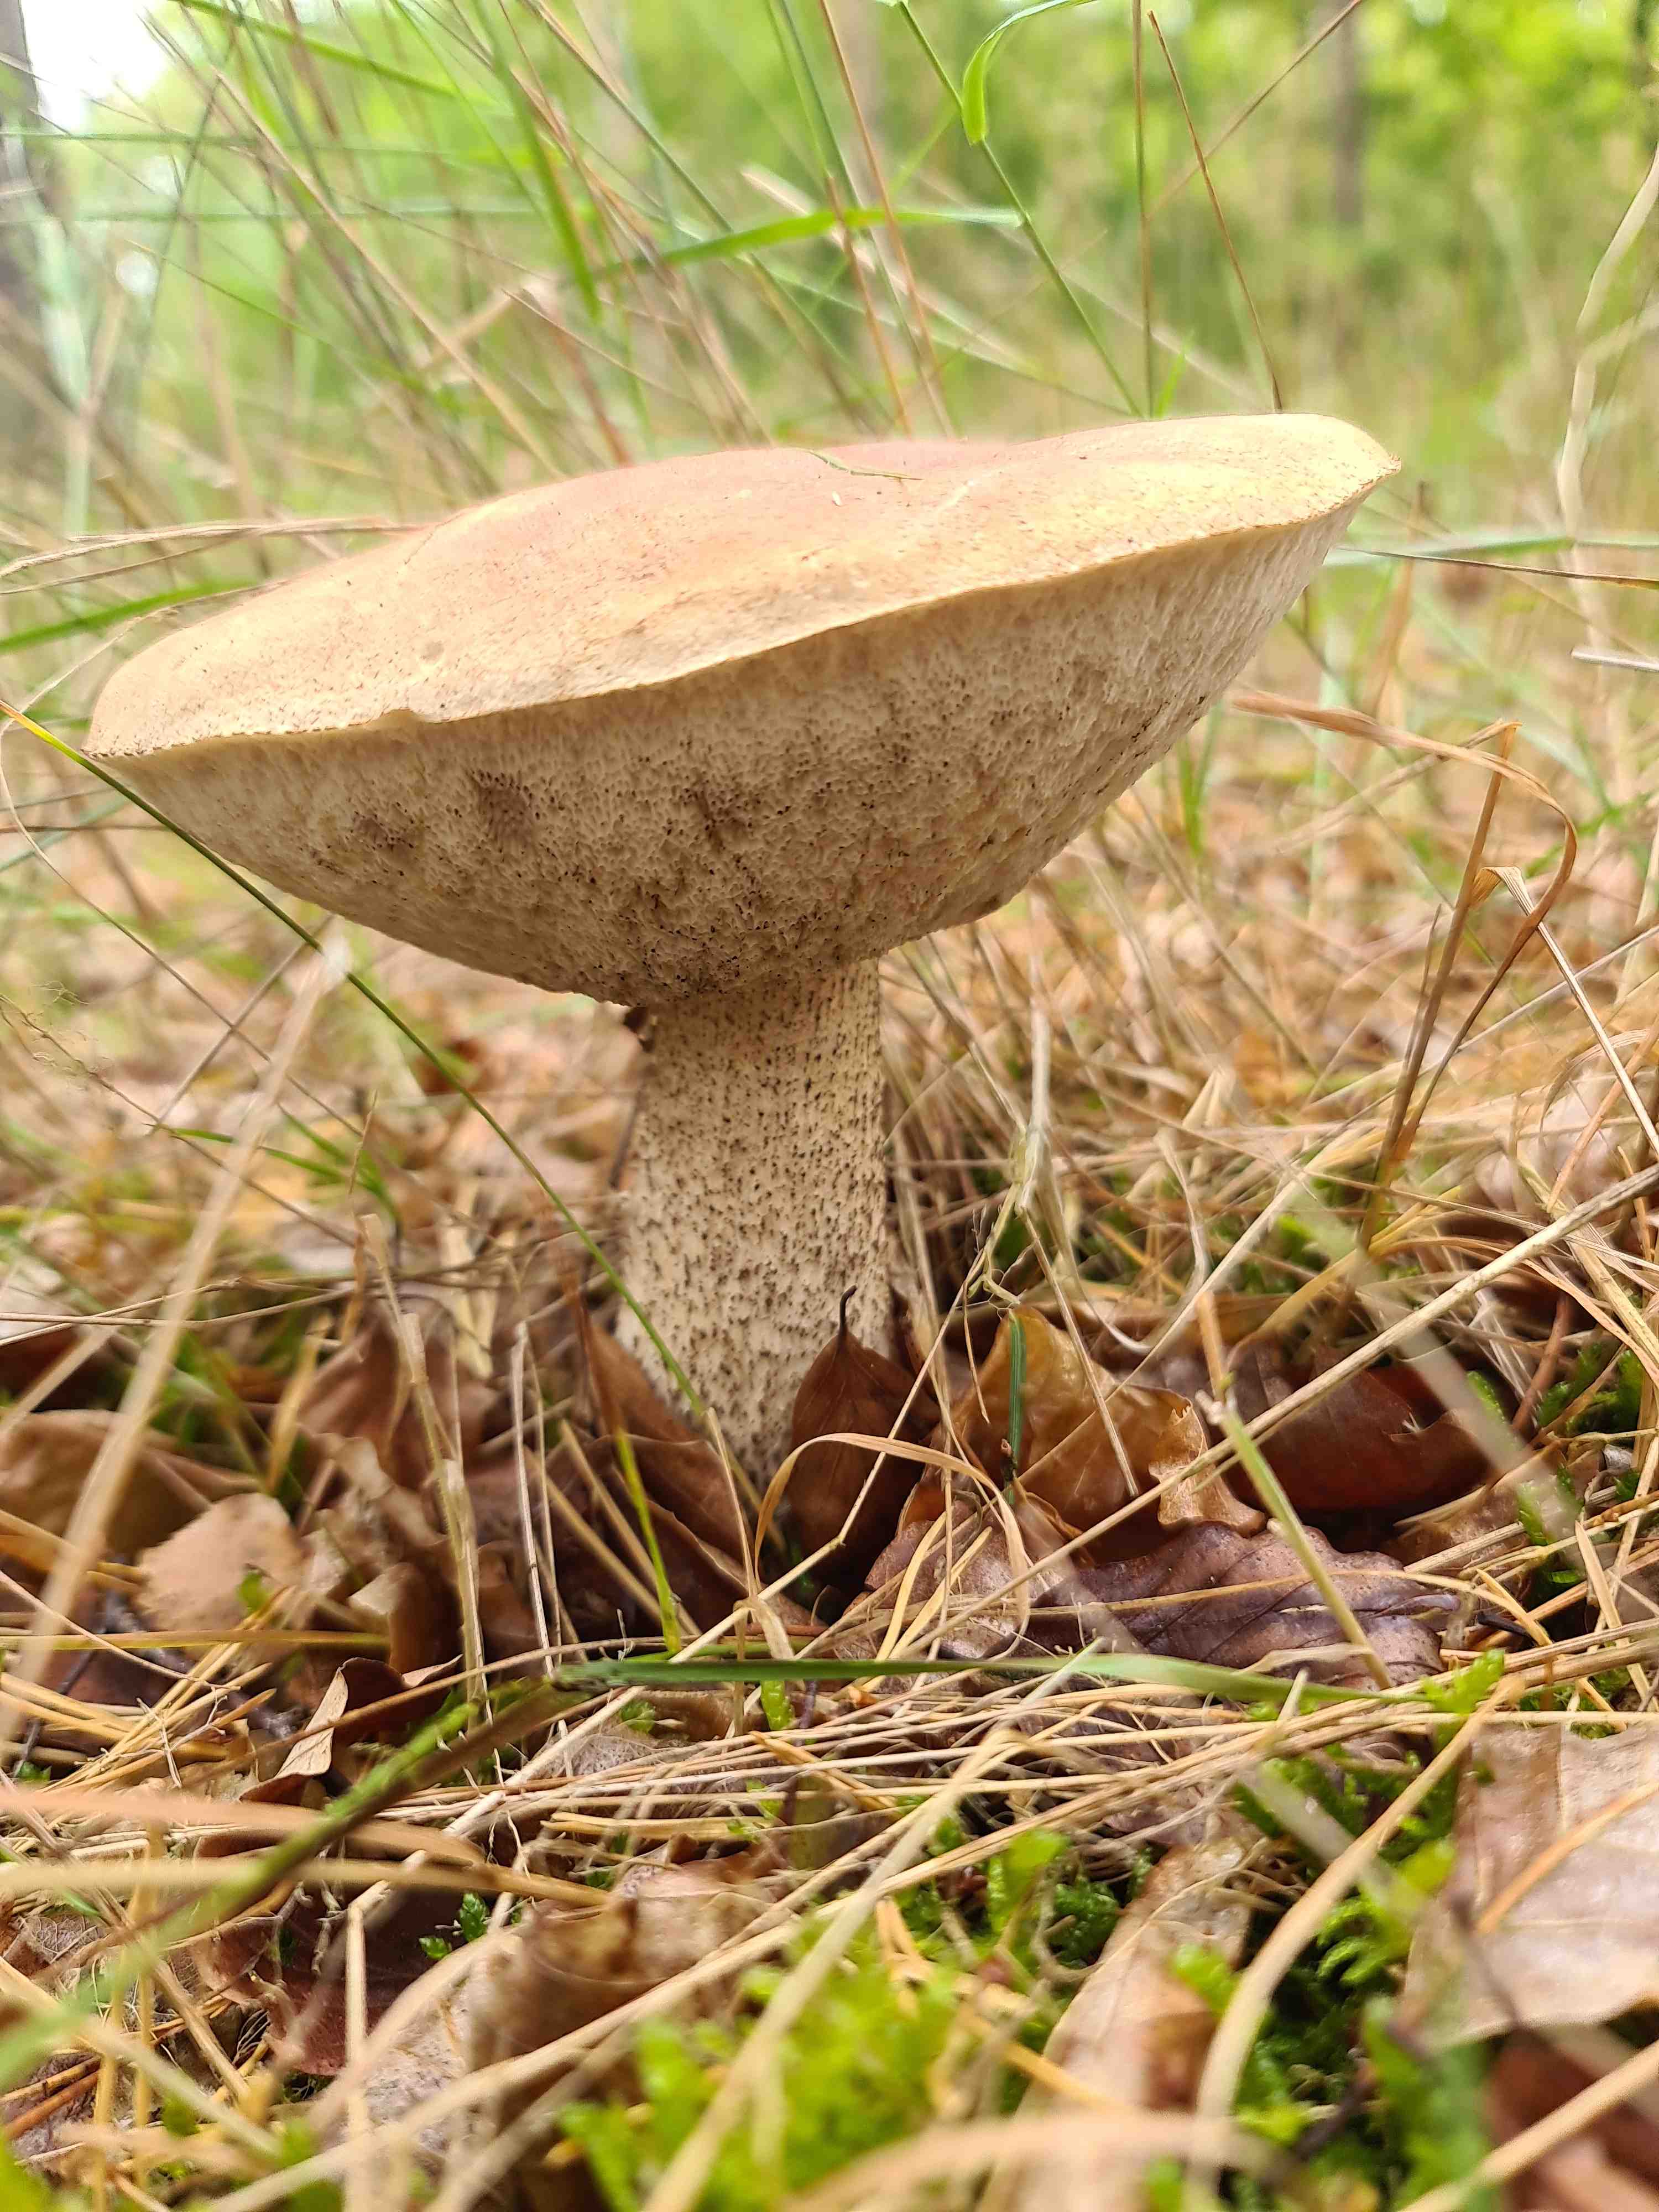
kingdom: Fungi
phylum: Basidiomycota
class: Agaricomycetes
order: Boletales
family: Boletaceae
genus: Leccinum
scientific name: Leccinum
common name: skælrørhat
